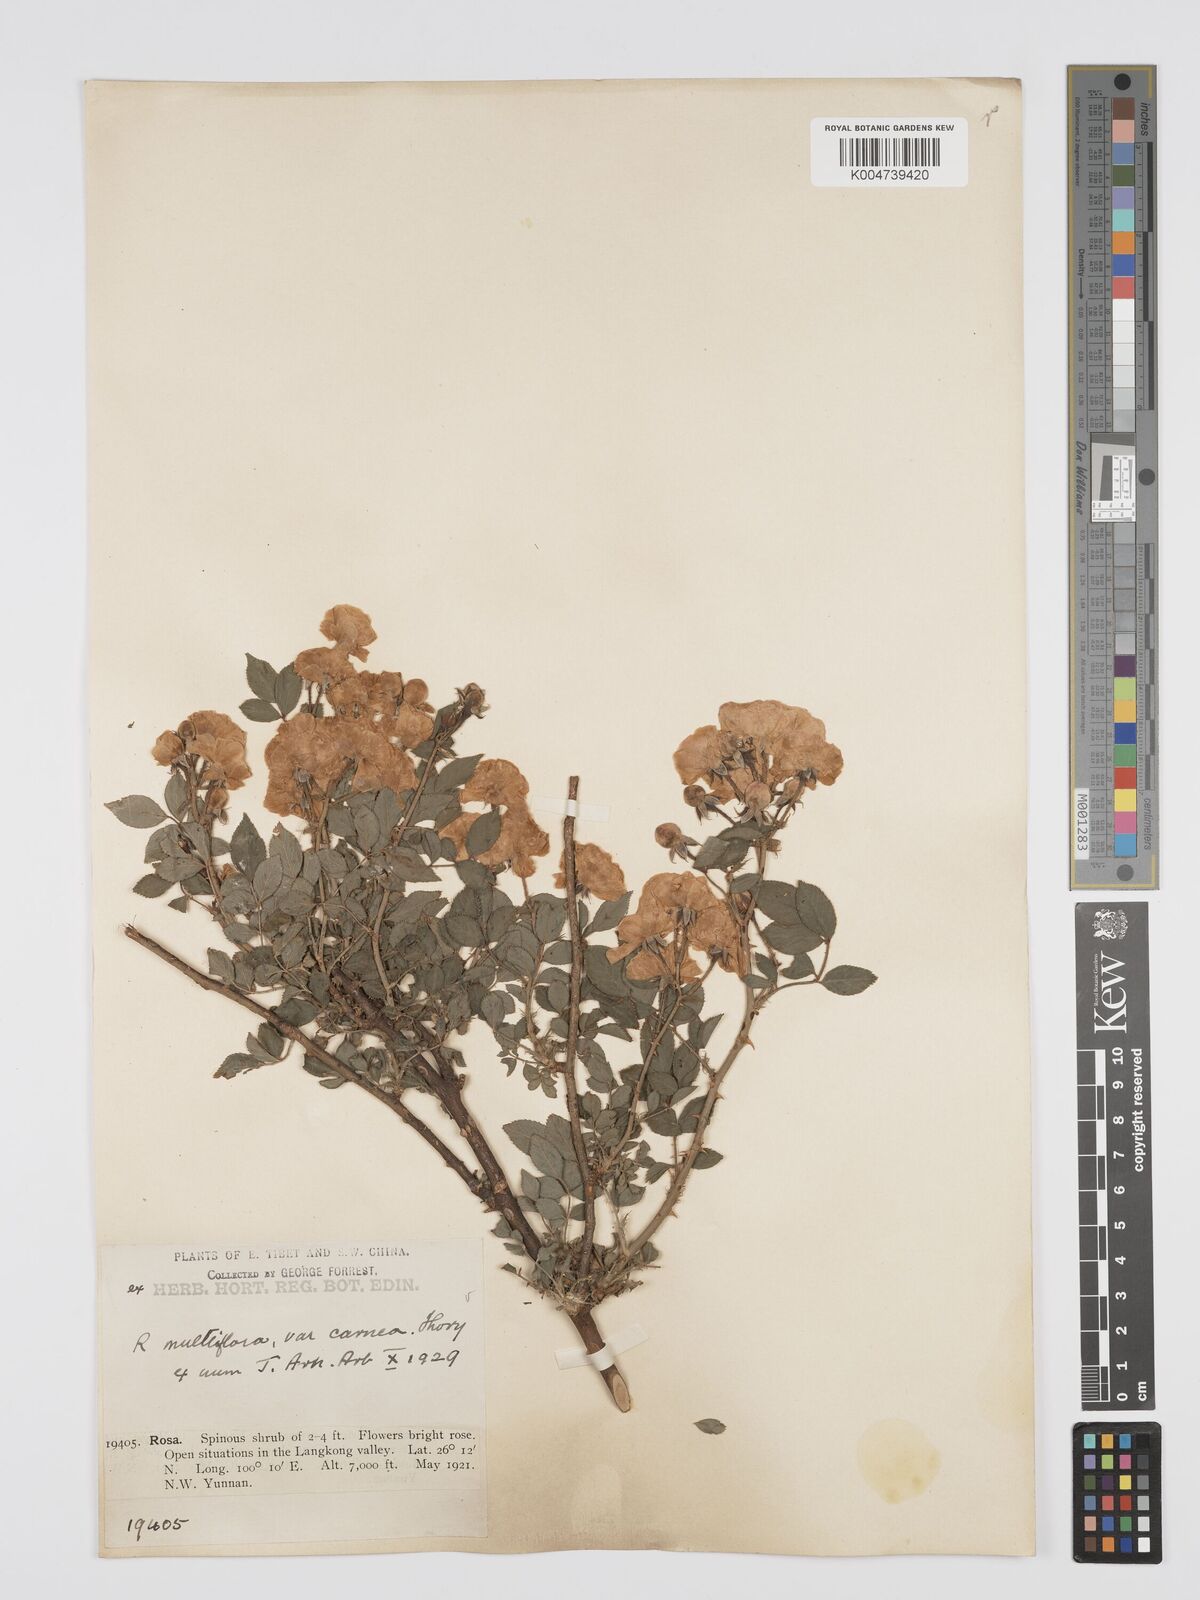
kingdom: Plantae
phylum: Tracheophyta
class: Magnoliopsida
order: Rosales
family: Rosaceae
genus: Rosa
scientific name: Rosa multiflora
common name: Multiflora rose
